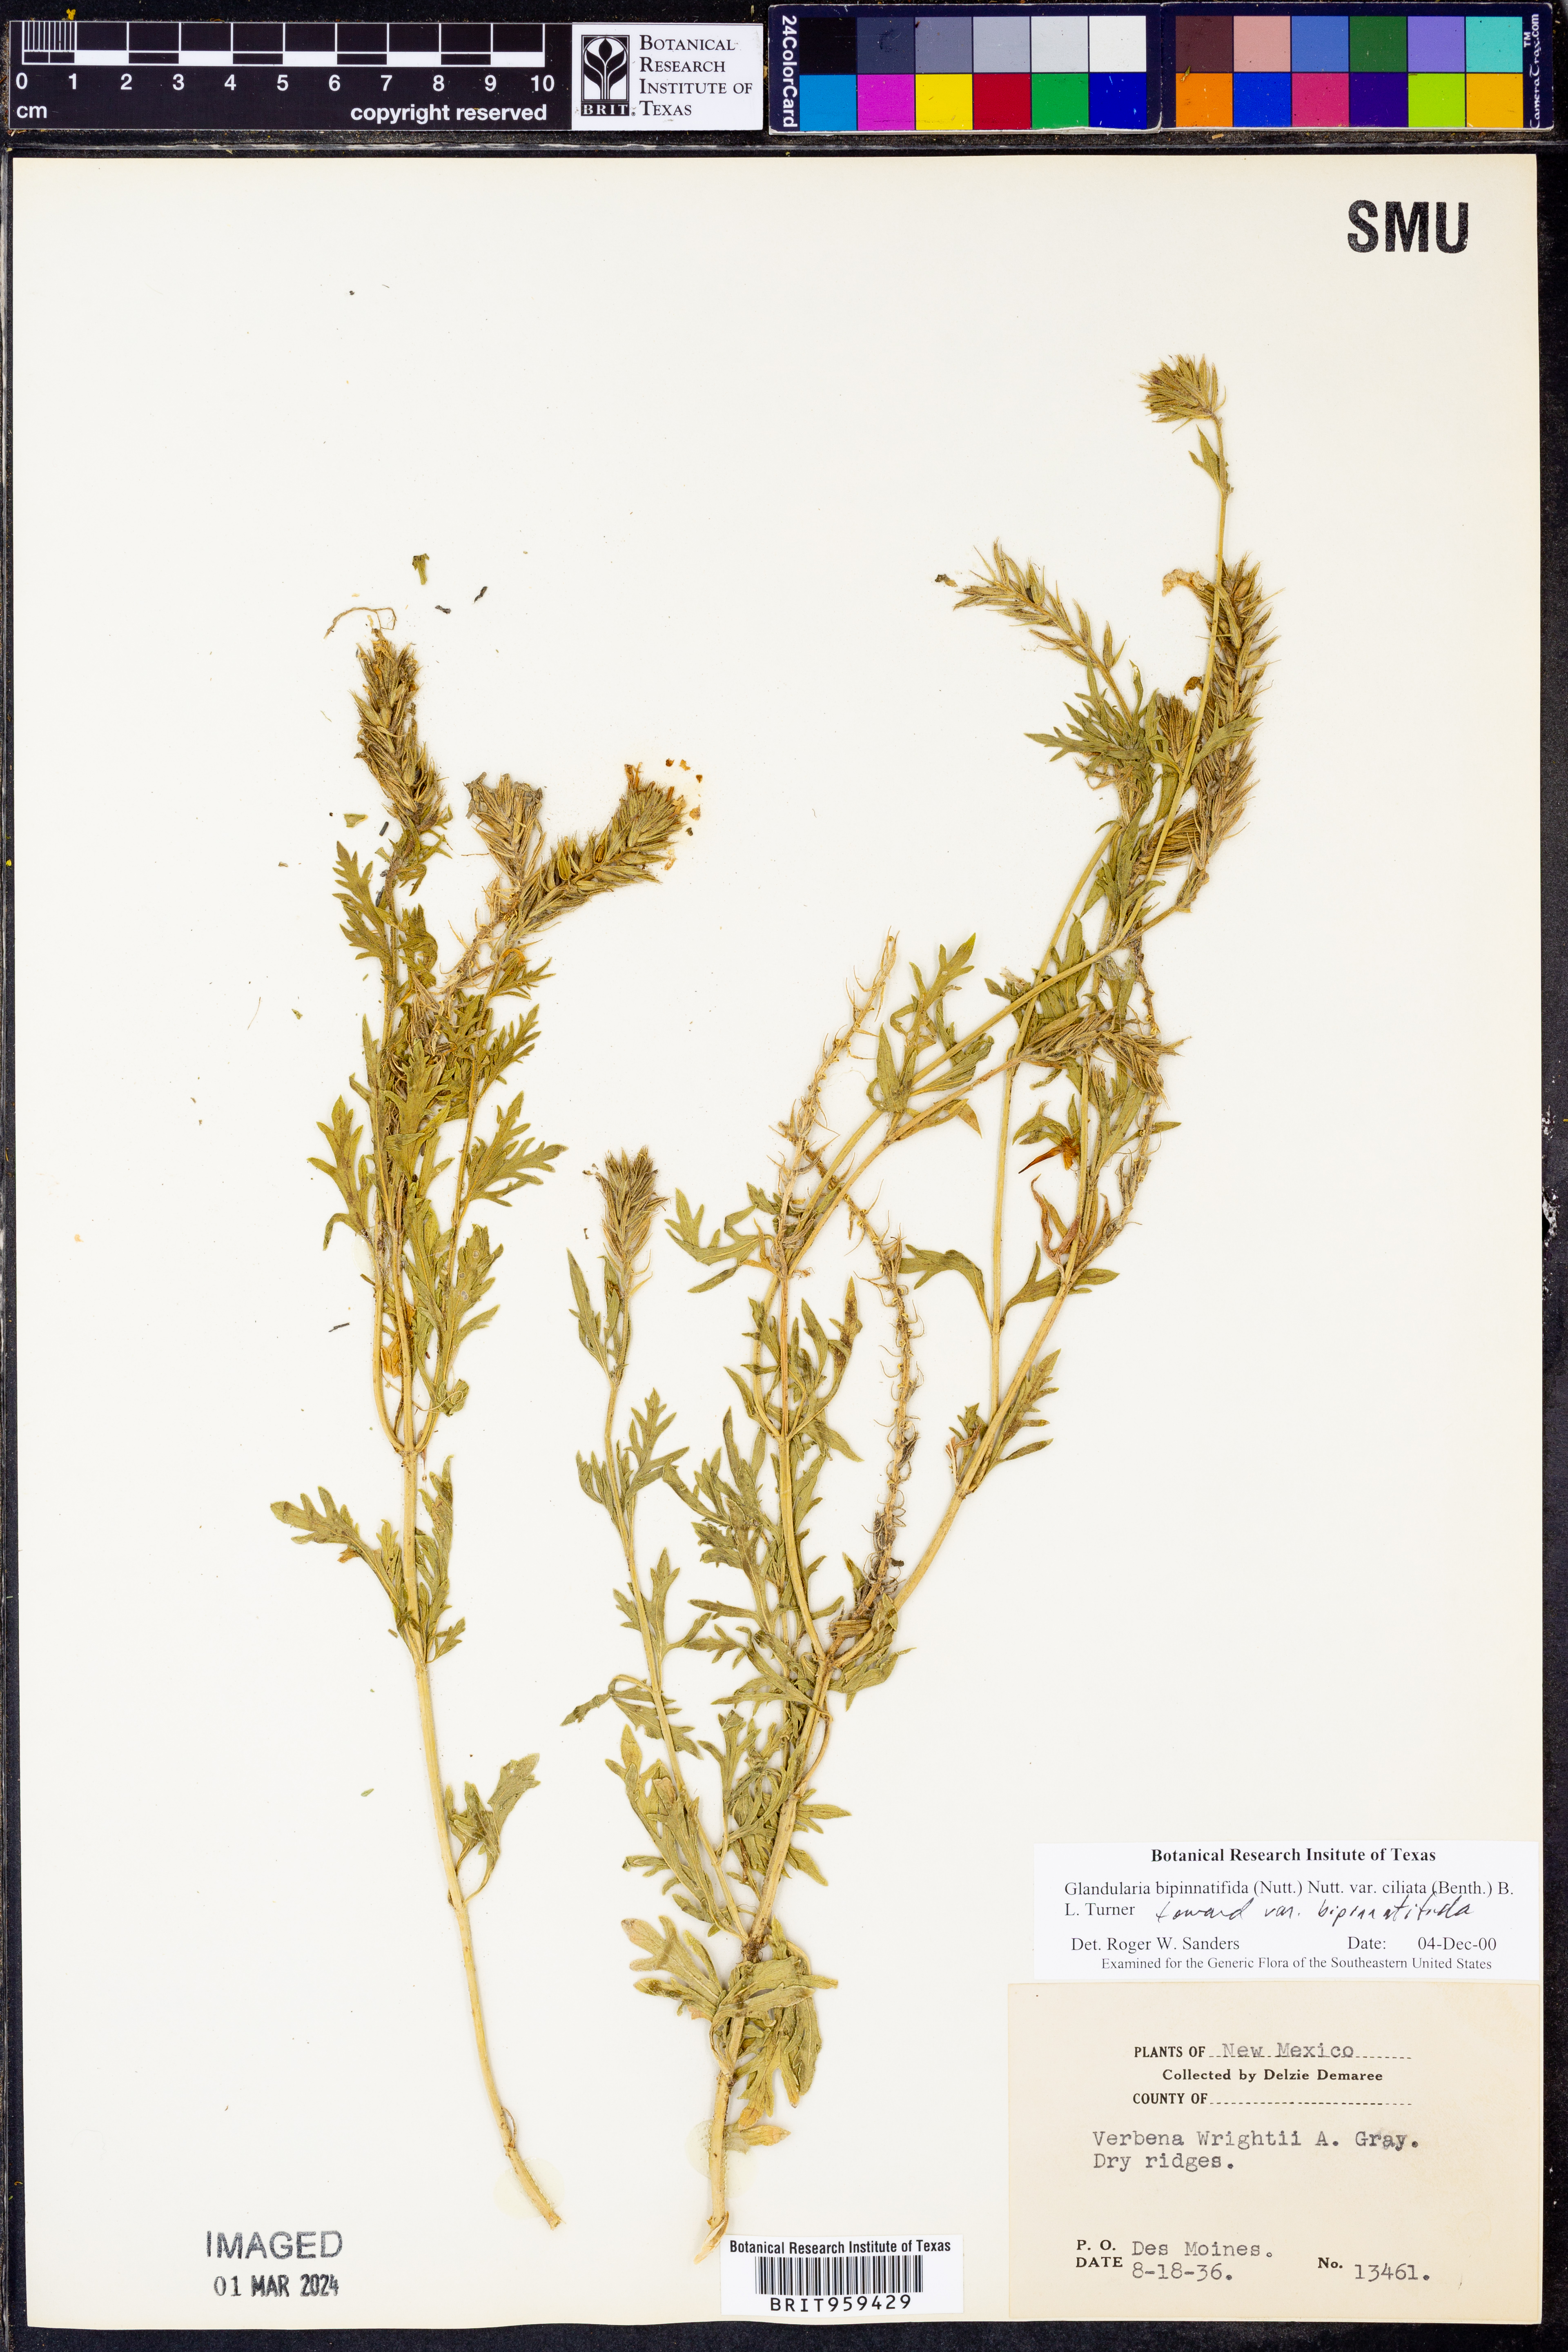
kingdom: Plantae
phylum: Tracheophyta
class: Magnoliopsida
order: Lamiales
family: Verbenaceae
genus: Verbena
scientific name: Verbena bipinnatifida
